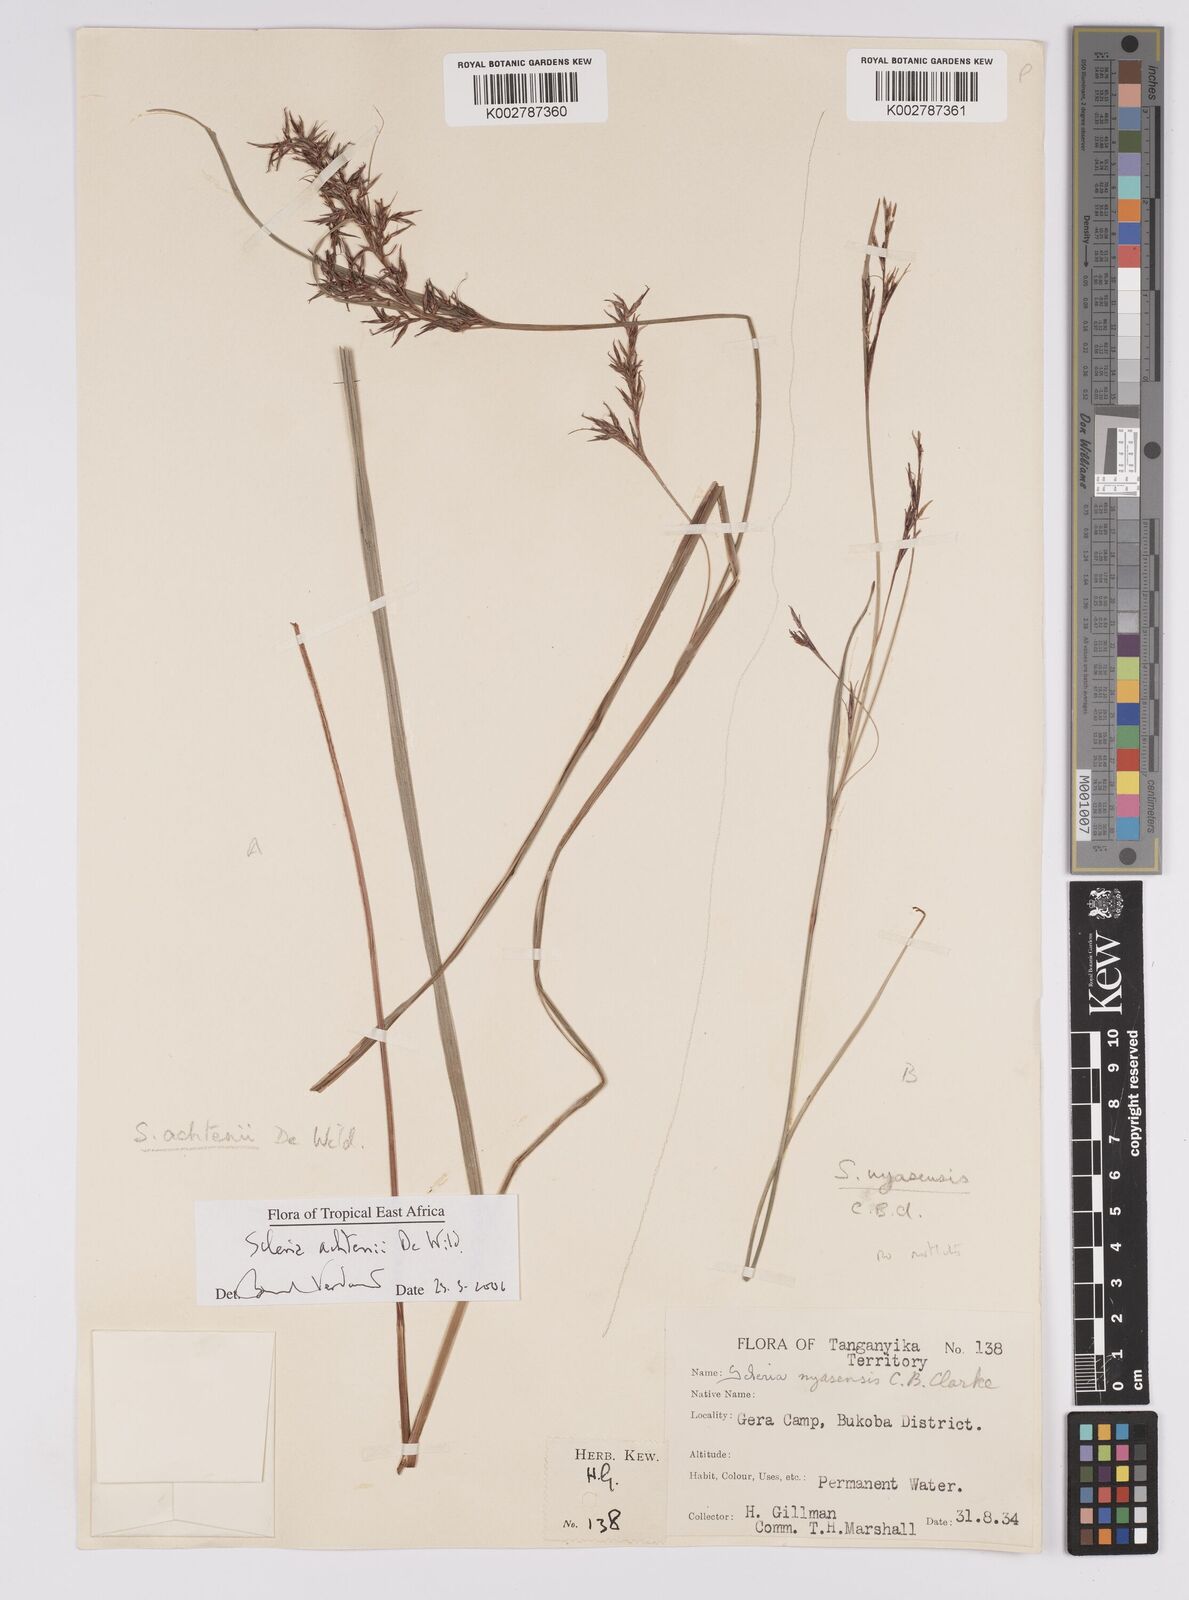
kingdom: Plantae
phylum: Tracheophyta
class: Liliopsida
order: Poales
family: Cyperaceae
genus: Scleria
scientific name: Scleria achtenii
